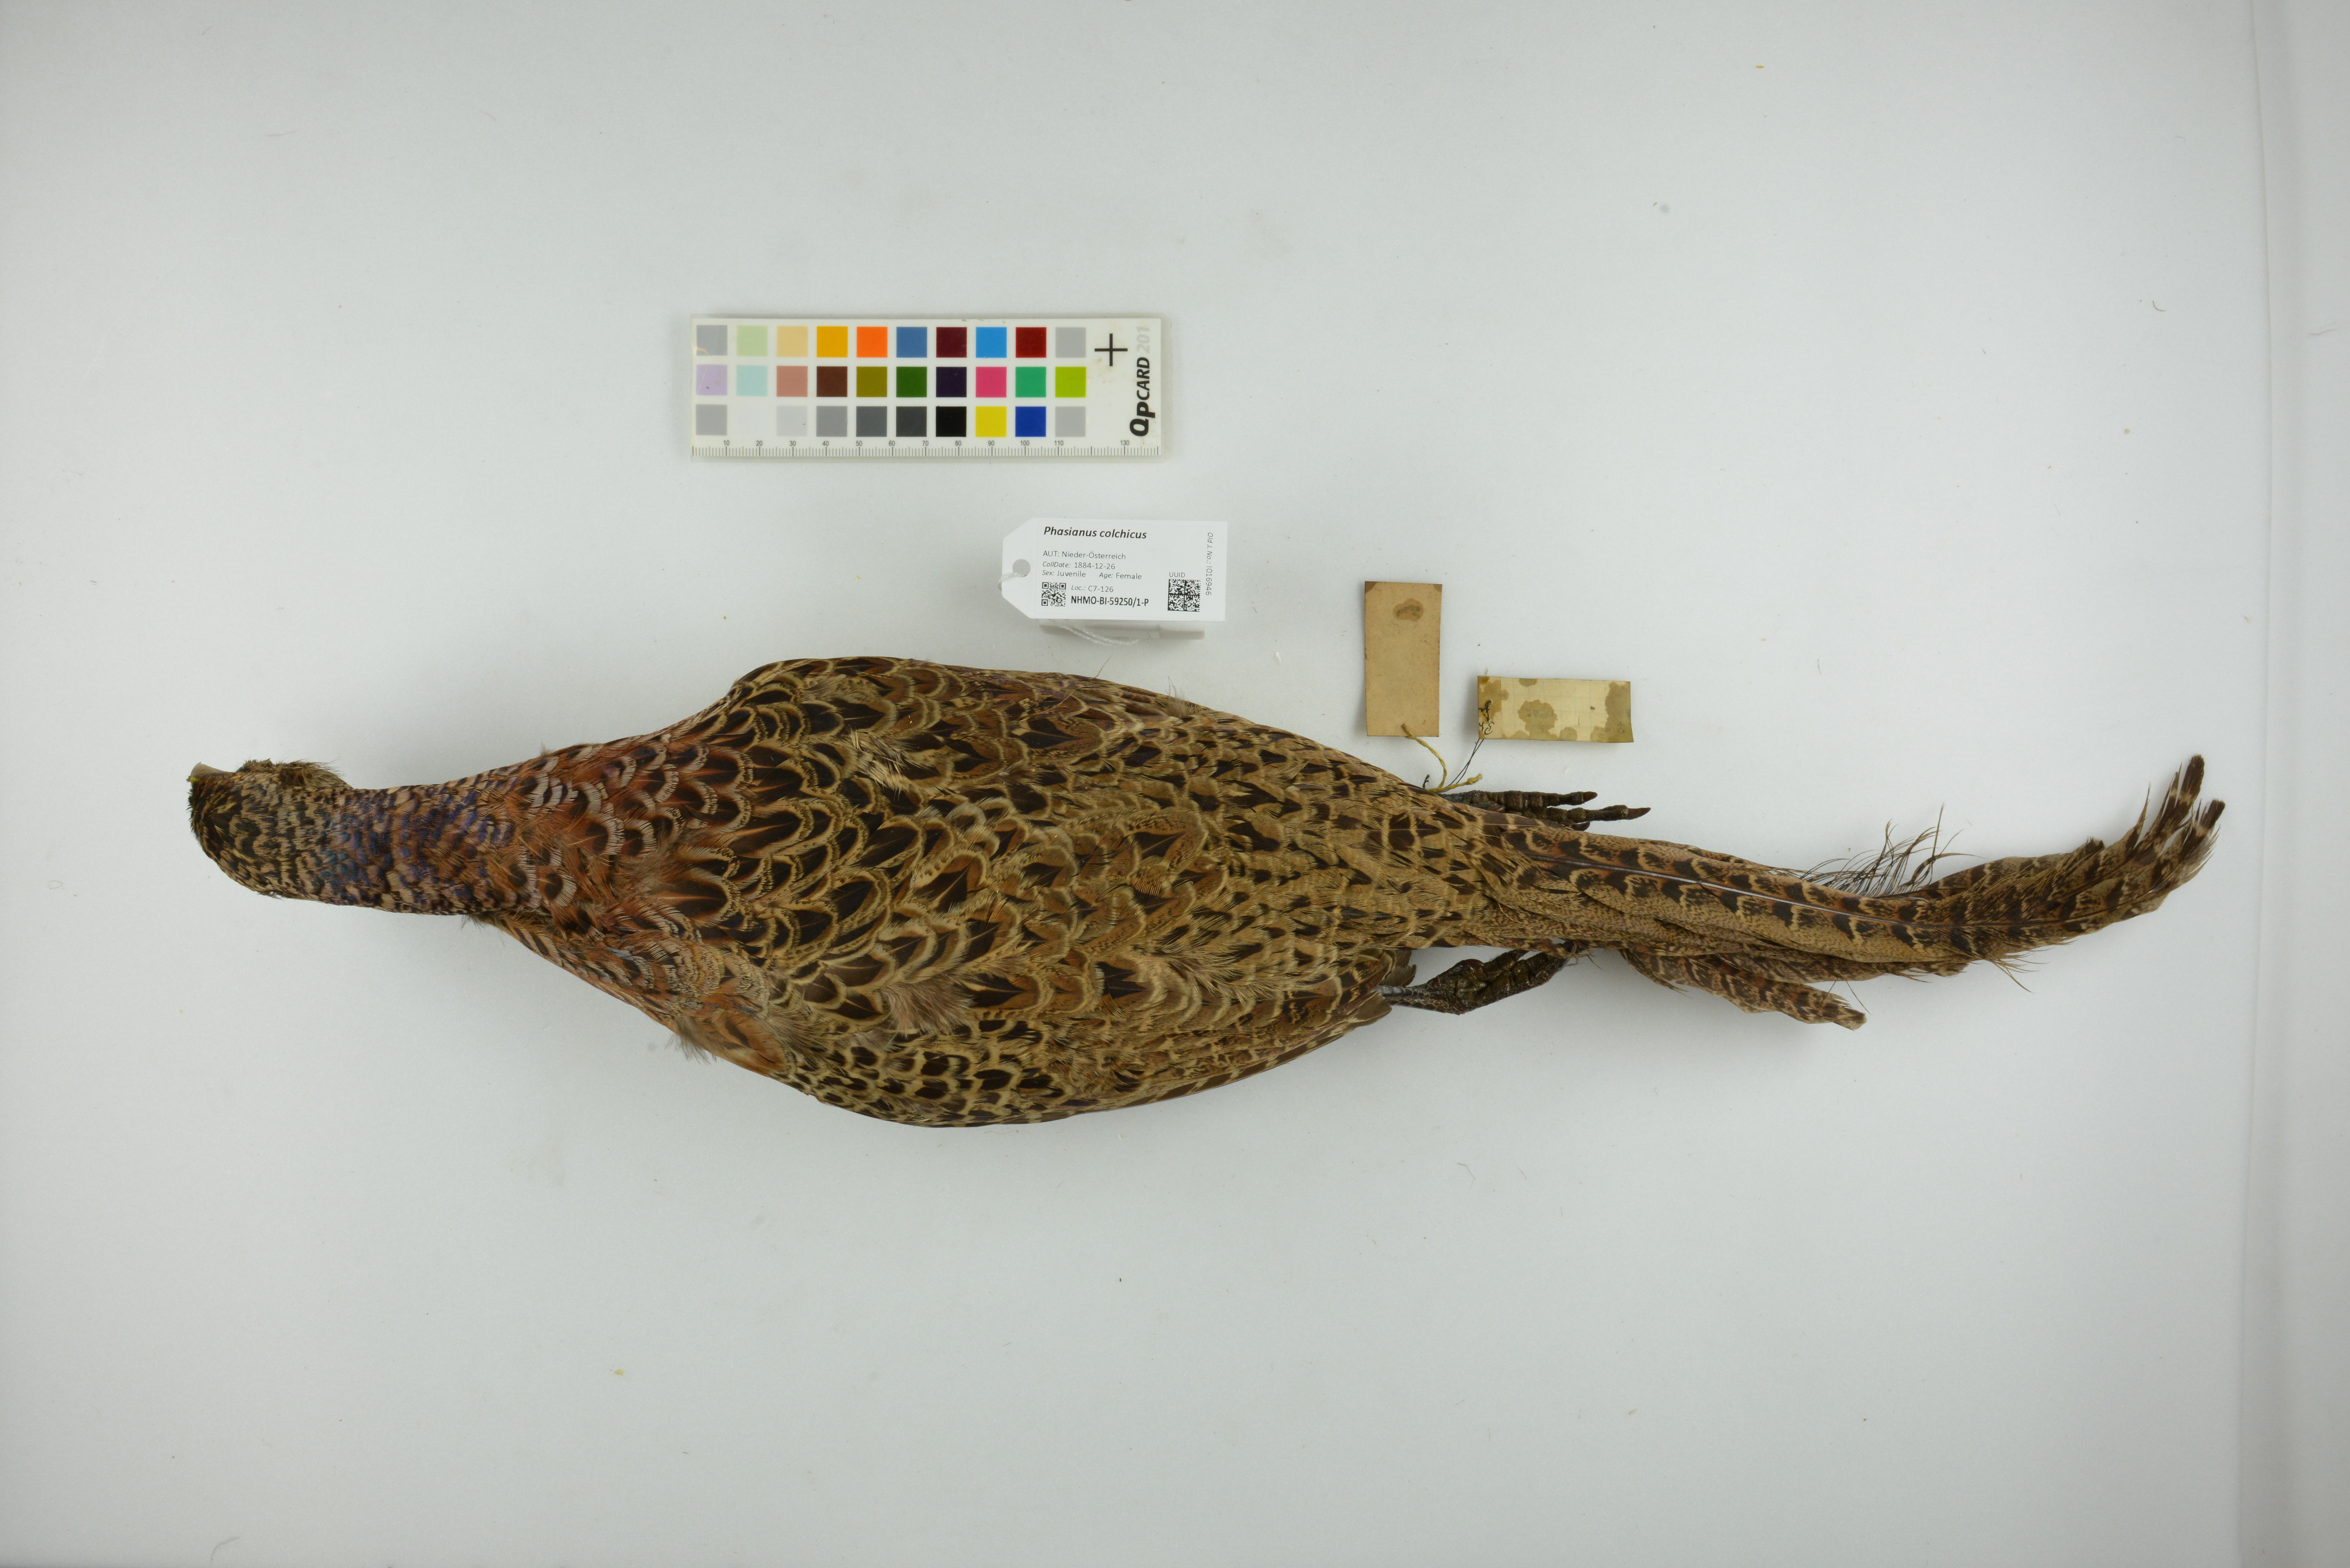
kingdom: Animalia
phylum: Chordata
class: Aves
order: Galliformes
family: Phasianidae
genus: Phasianus
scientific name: Phasianus colchicus
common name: Common pheasant
